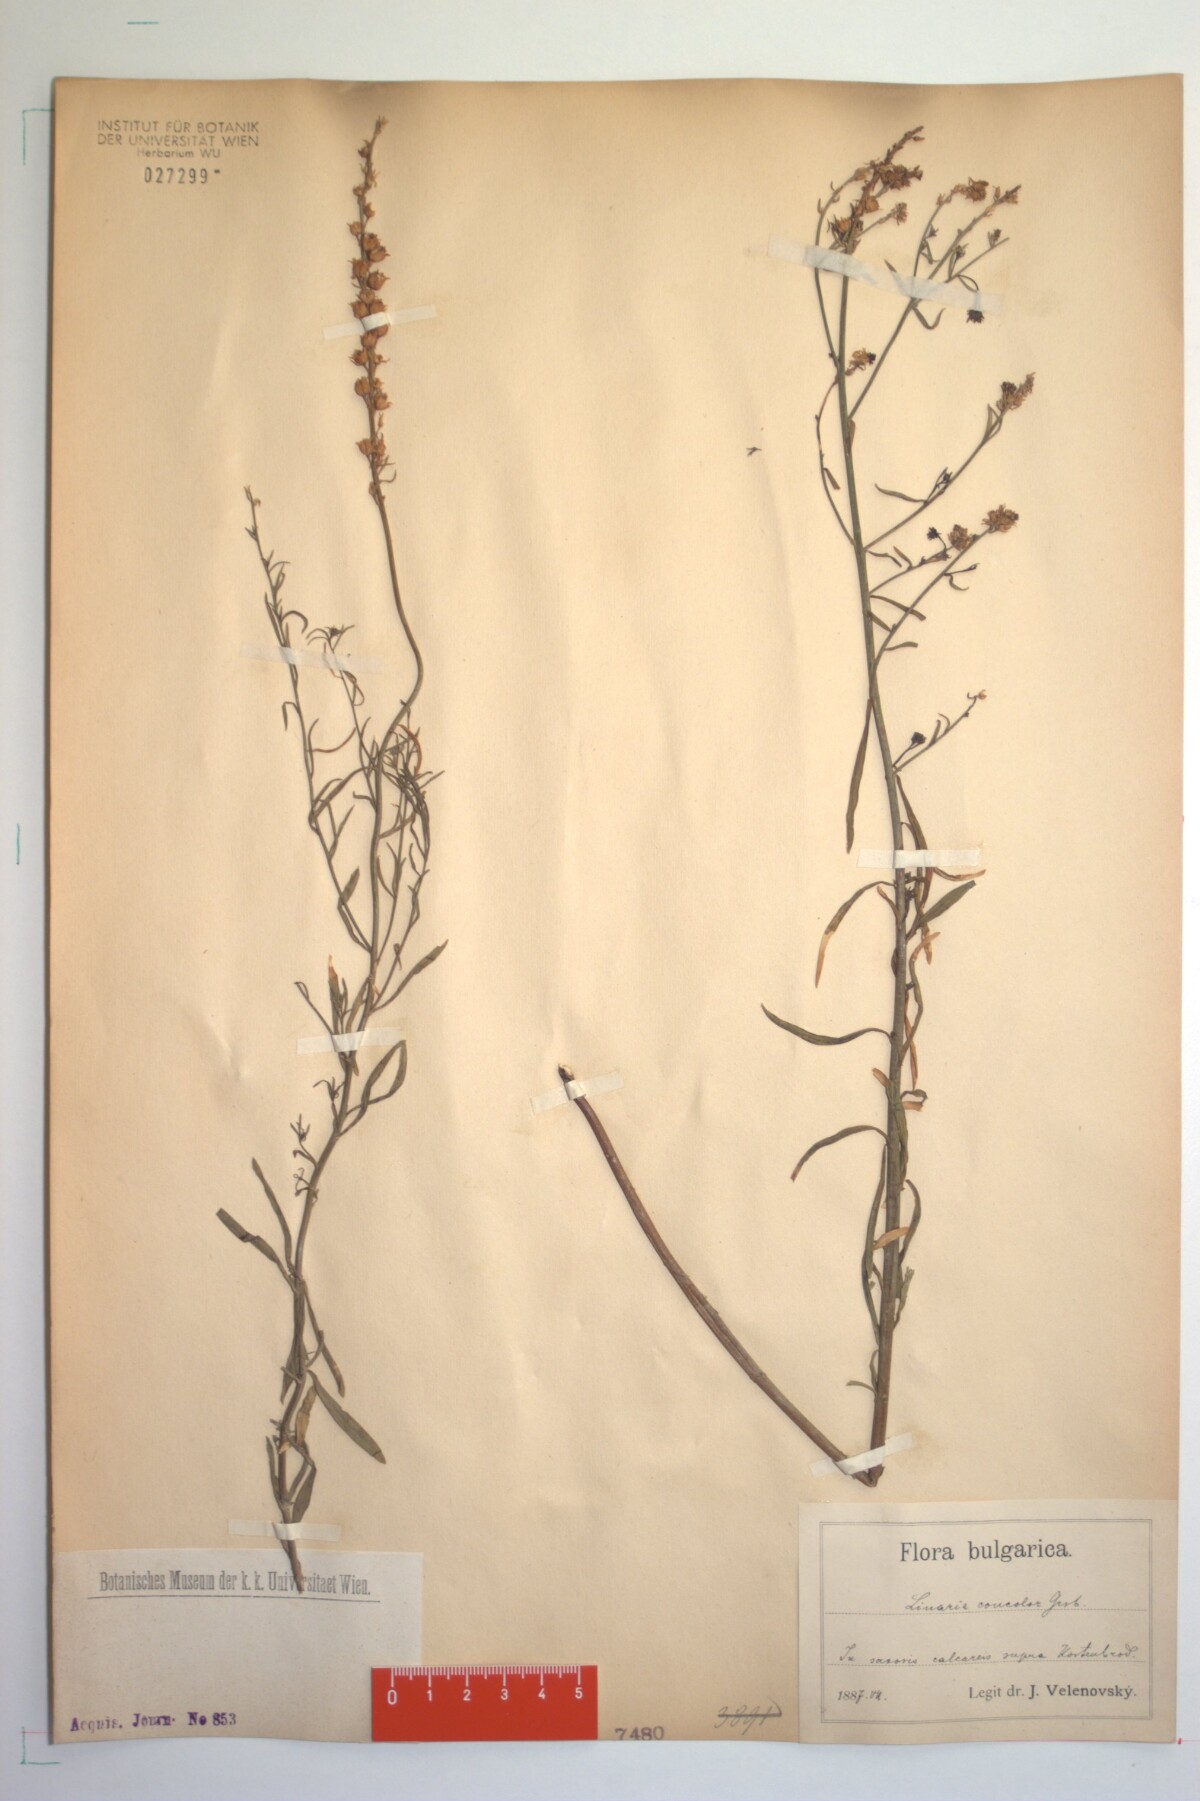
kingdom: Plantae
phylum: Tracheophyta
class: Magnoliopsida
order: Lamiales
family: Plantaginaceae
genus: Linaria
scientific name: Linaria genistifolia
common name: Broomleaf toadflax
